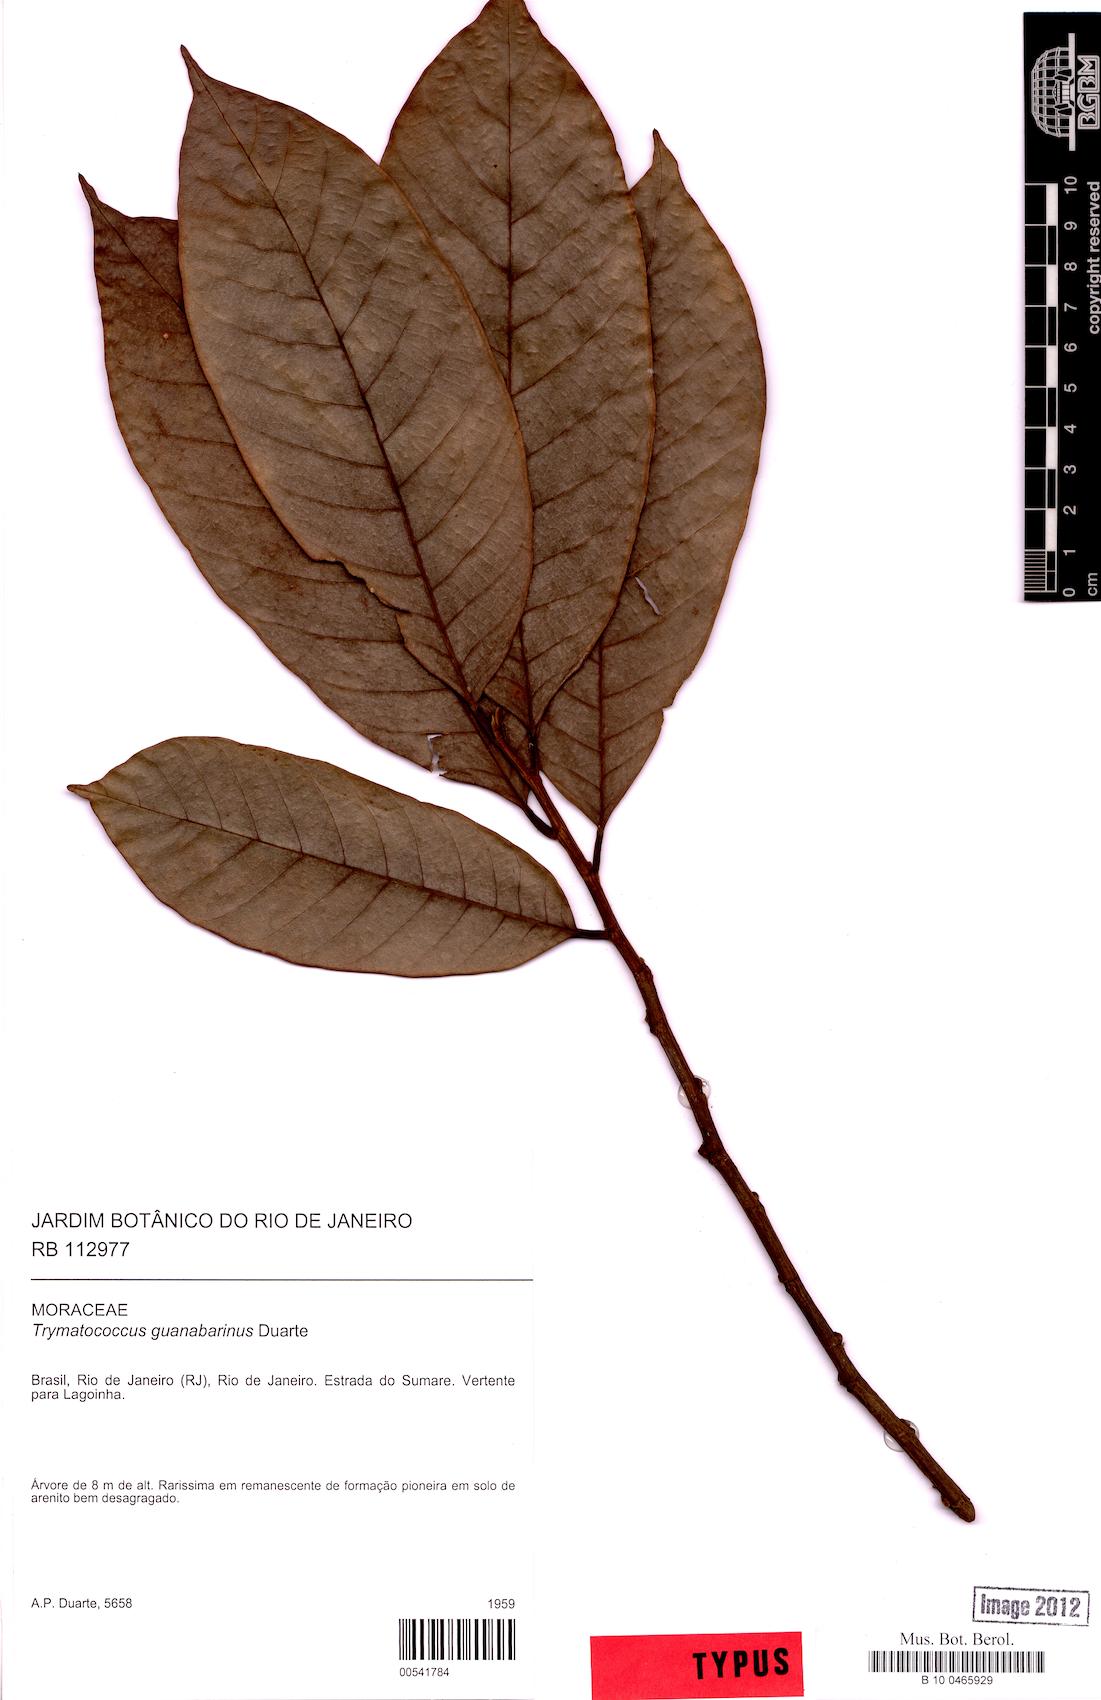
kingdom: Plantae
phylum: Tracheophyta
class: Magnoliopsida
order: Rosales
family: Moraceae
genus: Helicostylis
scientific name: Helicostylis tomentosa
